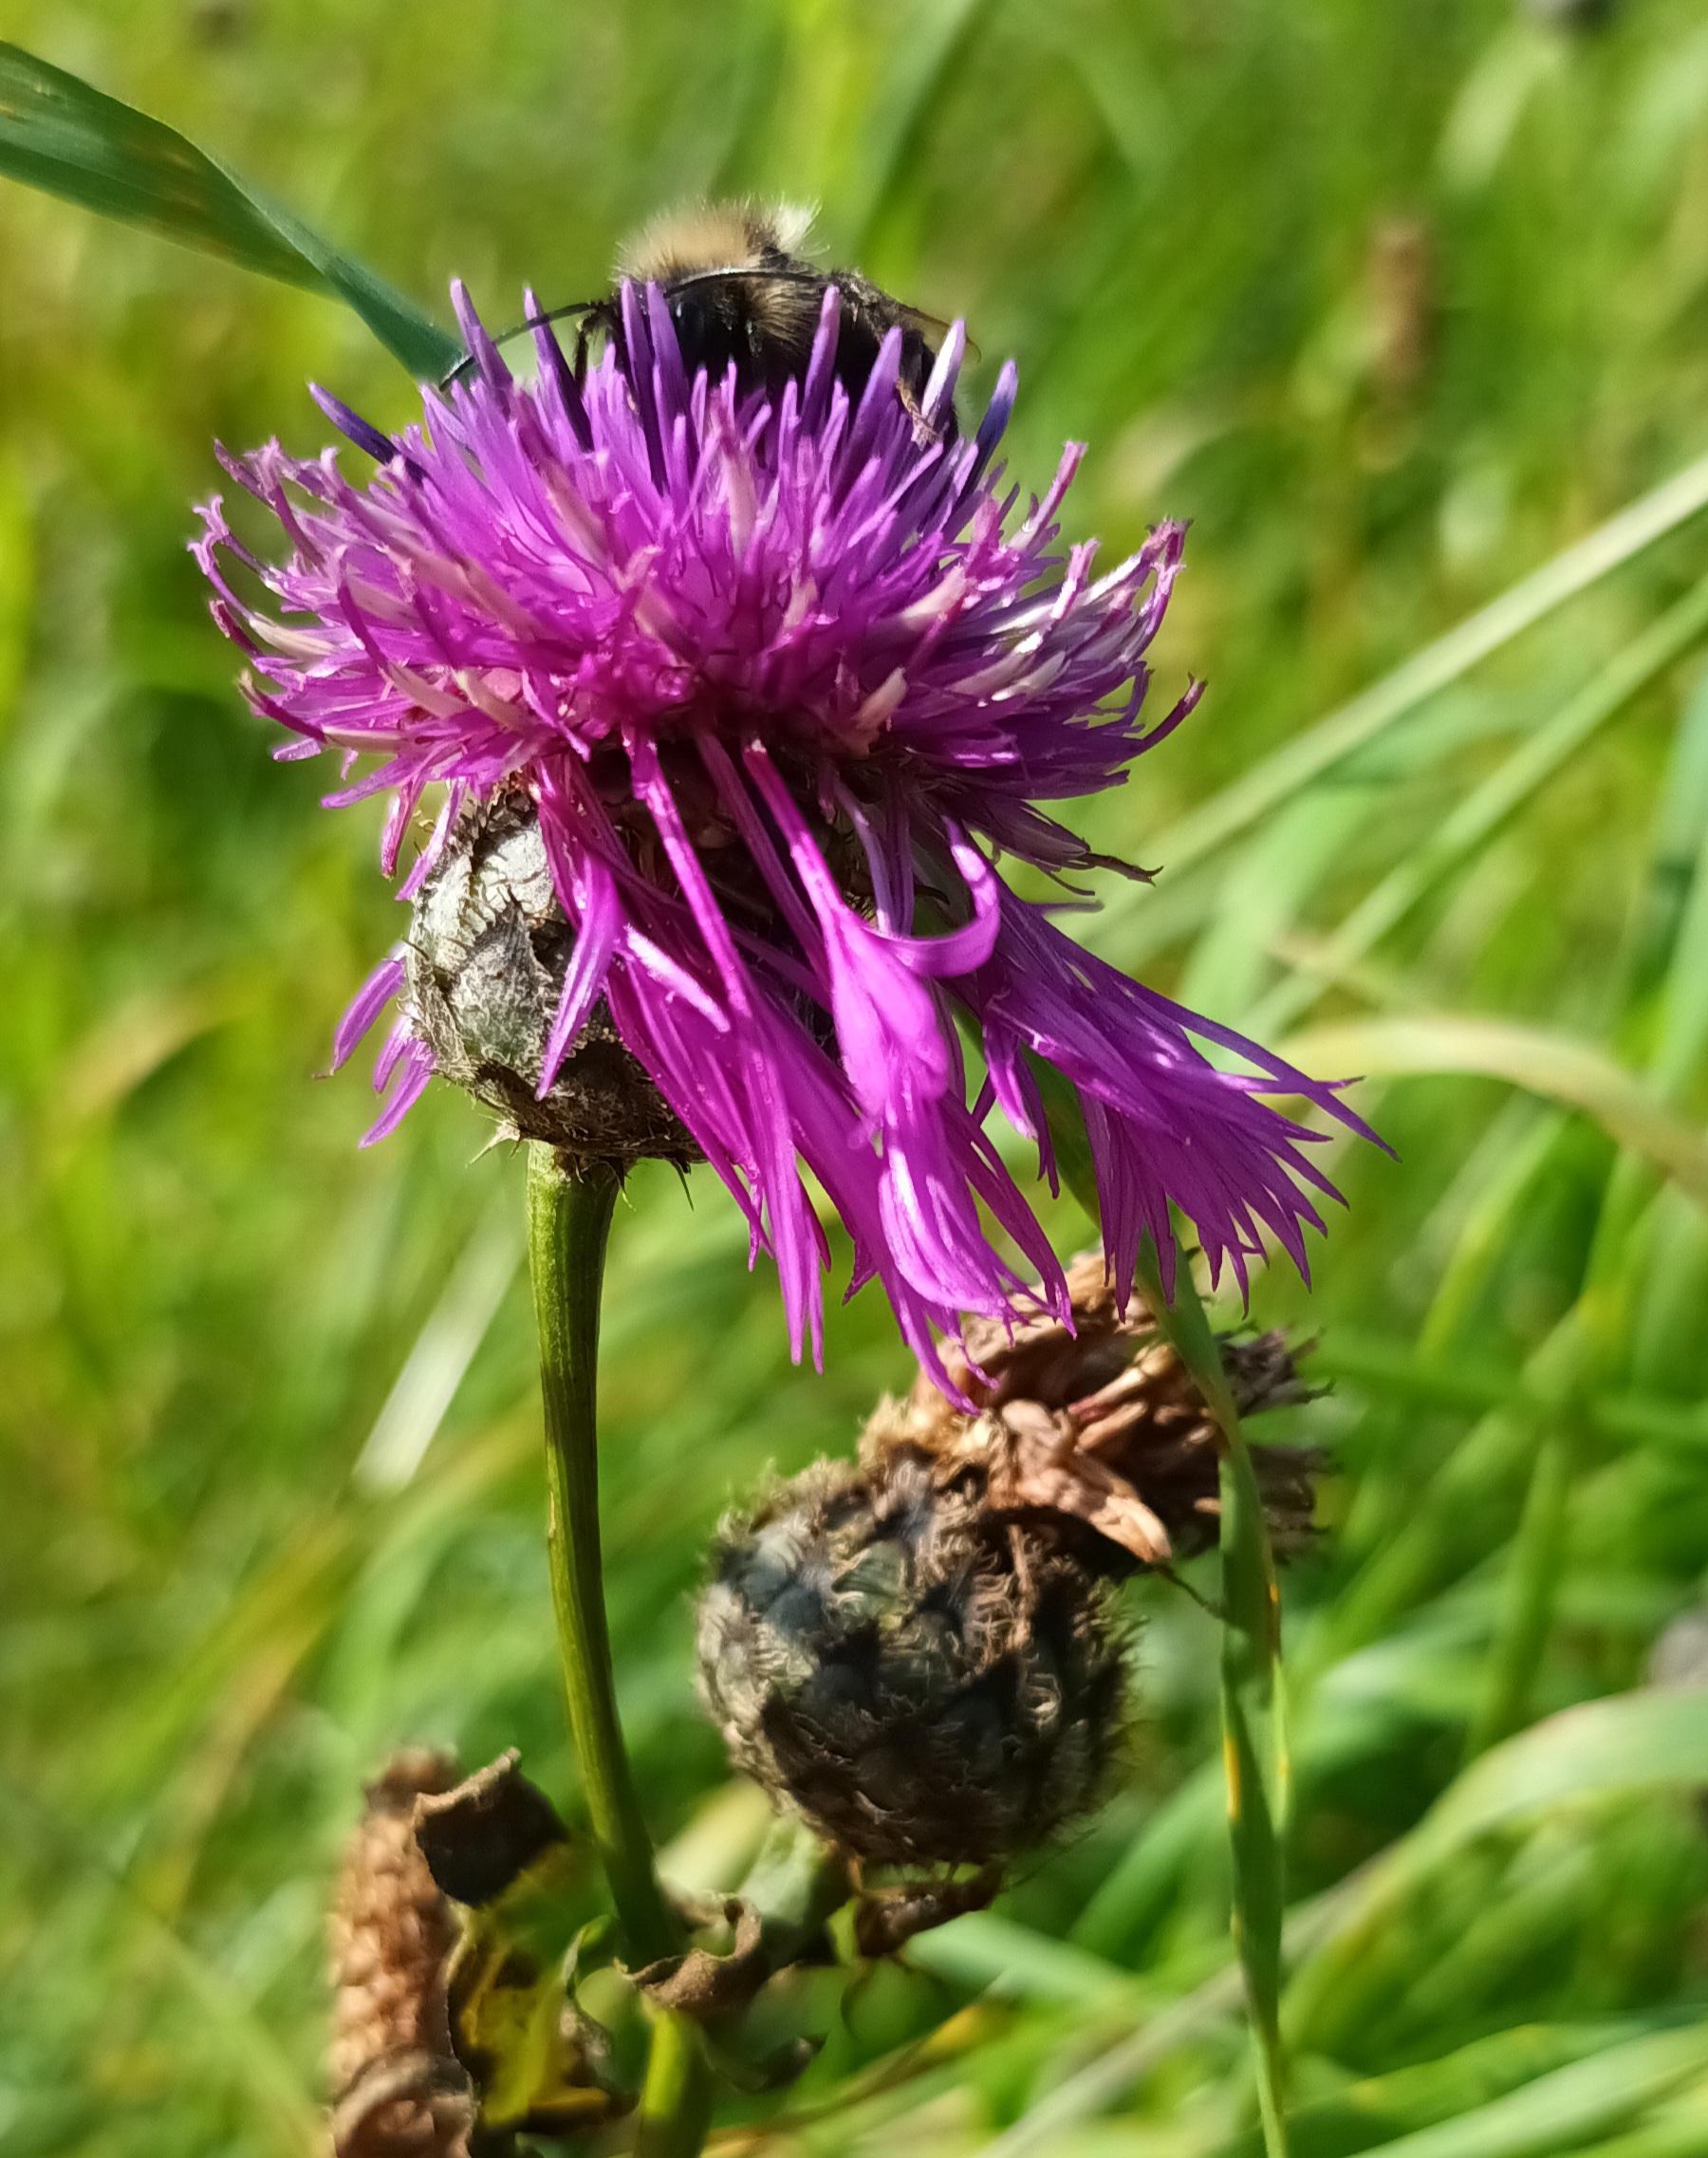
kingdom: Plantae
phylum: Tracheophyta
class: Magnoliopsida
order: Asterales
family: Asteraceae
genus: Centaurea
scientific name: Centaurea scabiosa
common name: Stor knopurt
